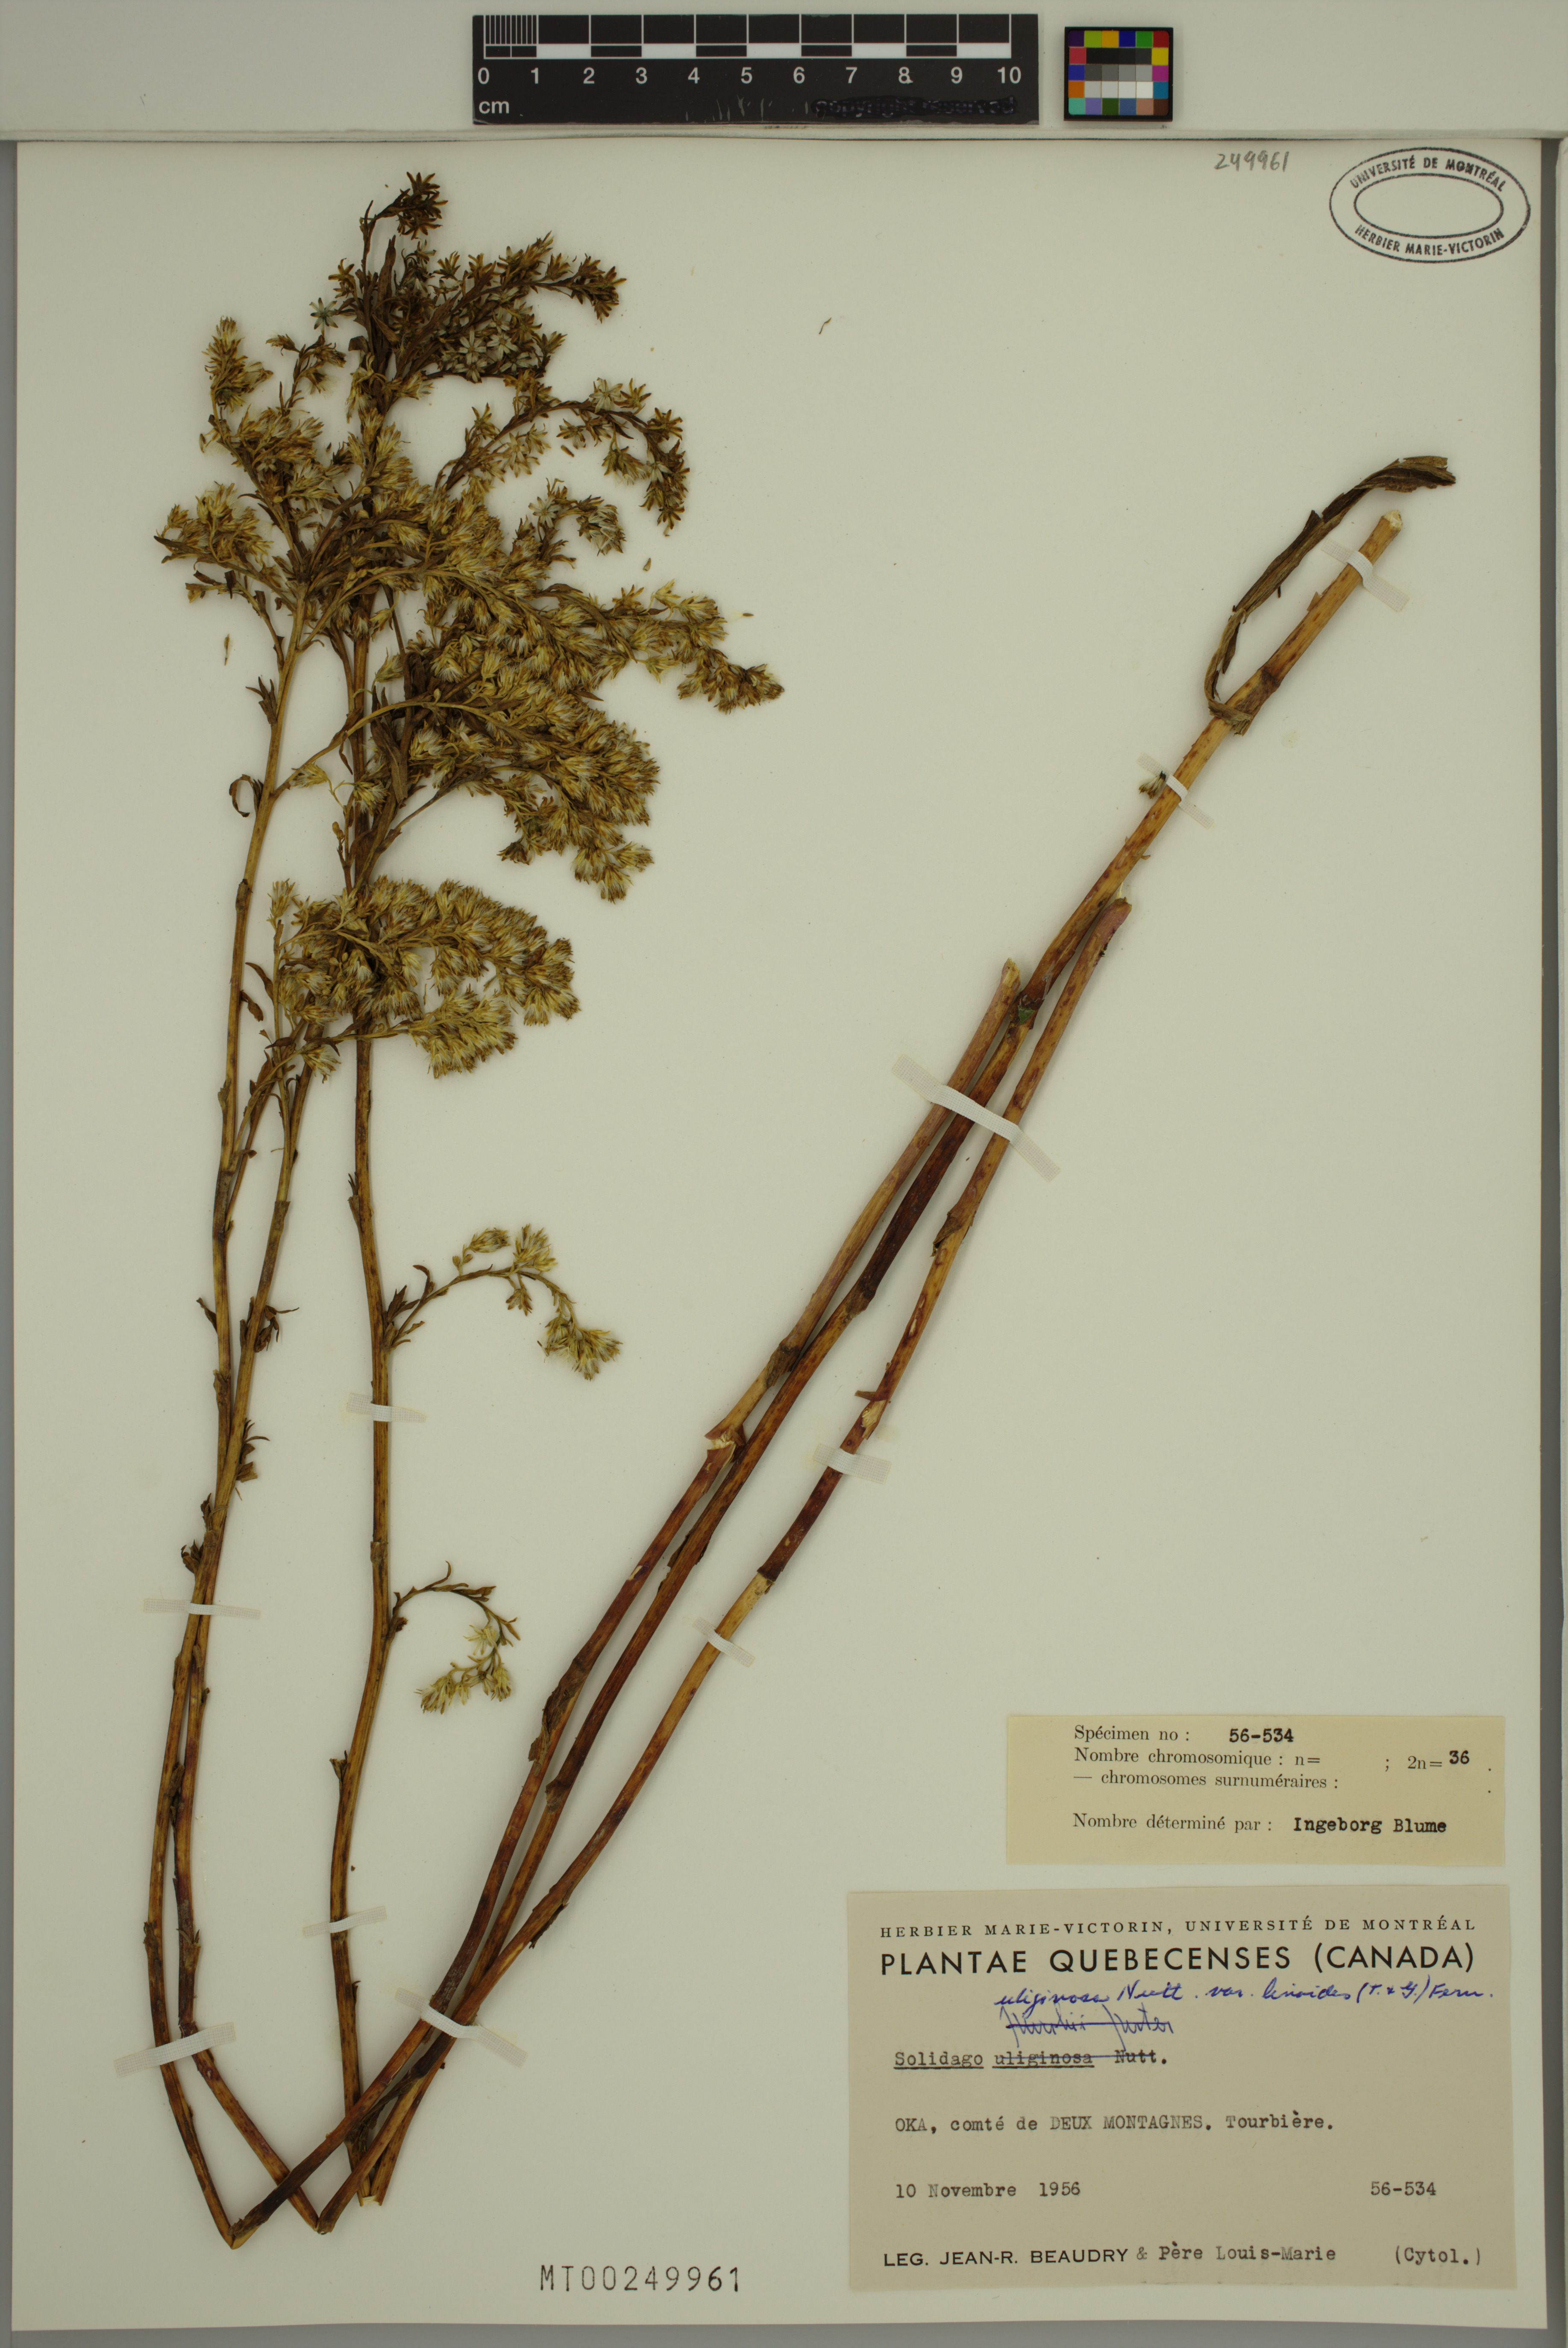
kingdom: Plantae
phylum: Tracheophyta
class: Magnoliopsida
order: Asterales
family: Asteraceae
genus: Solidago
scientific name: Solidago uliginosa
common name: Bog goldenrod
